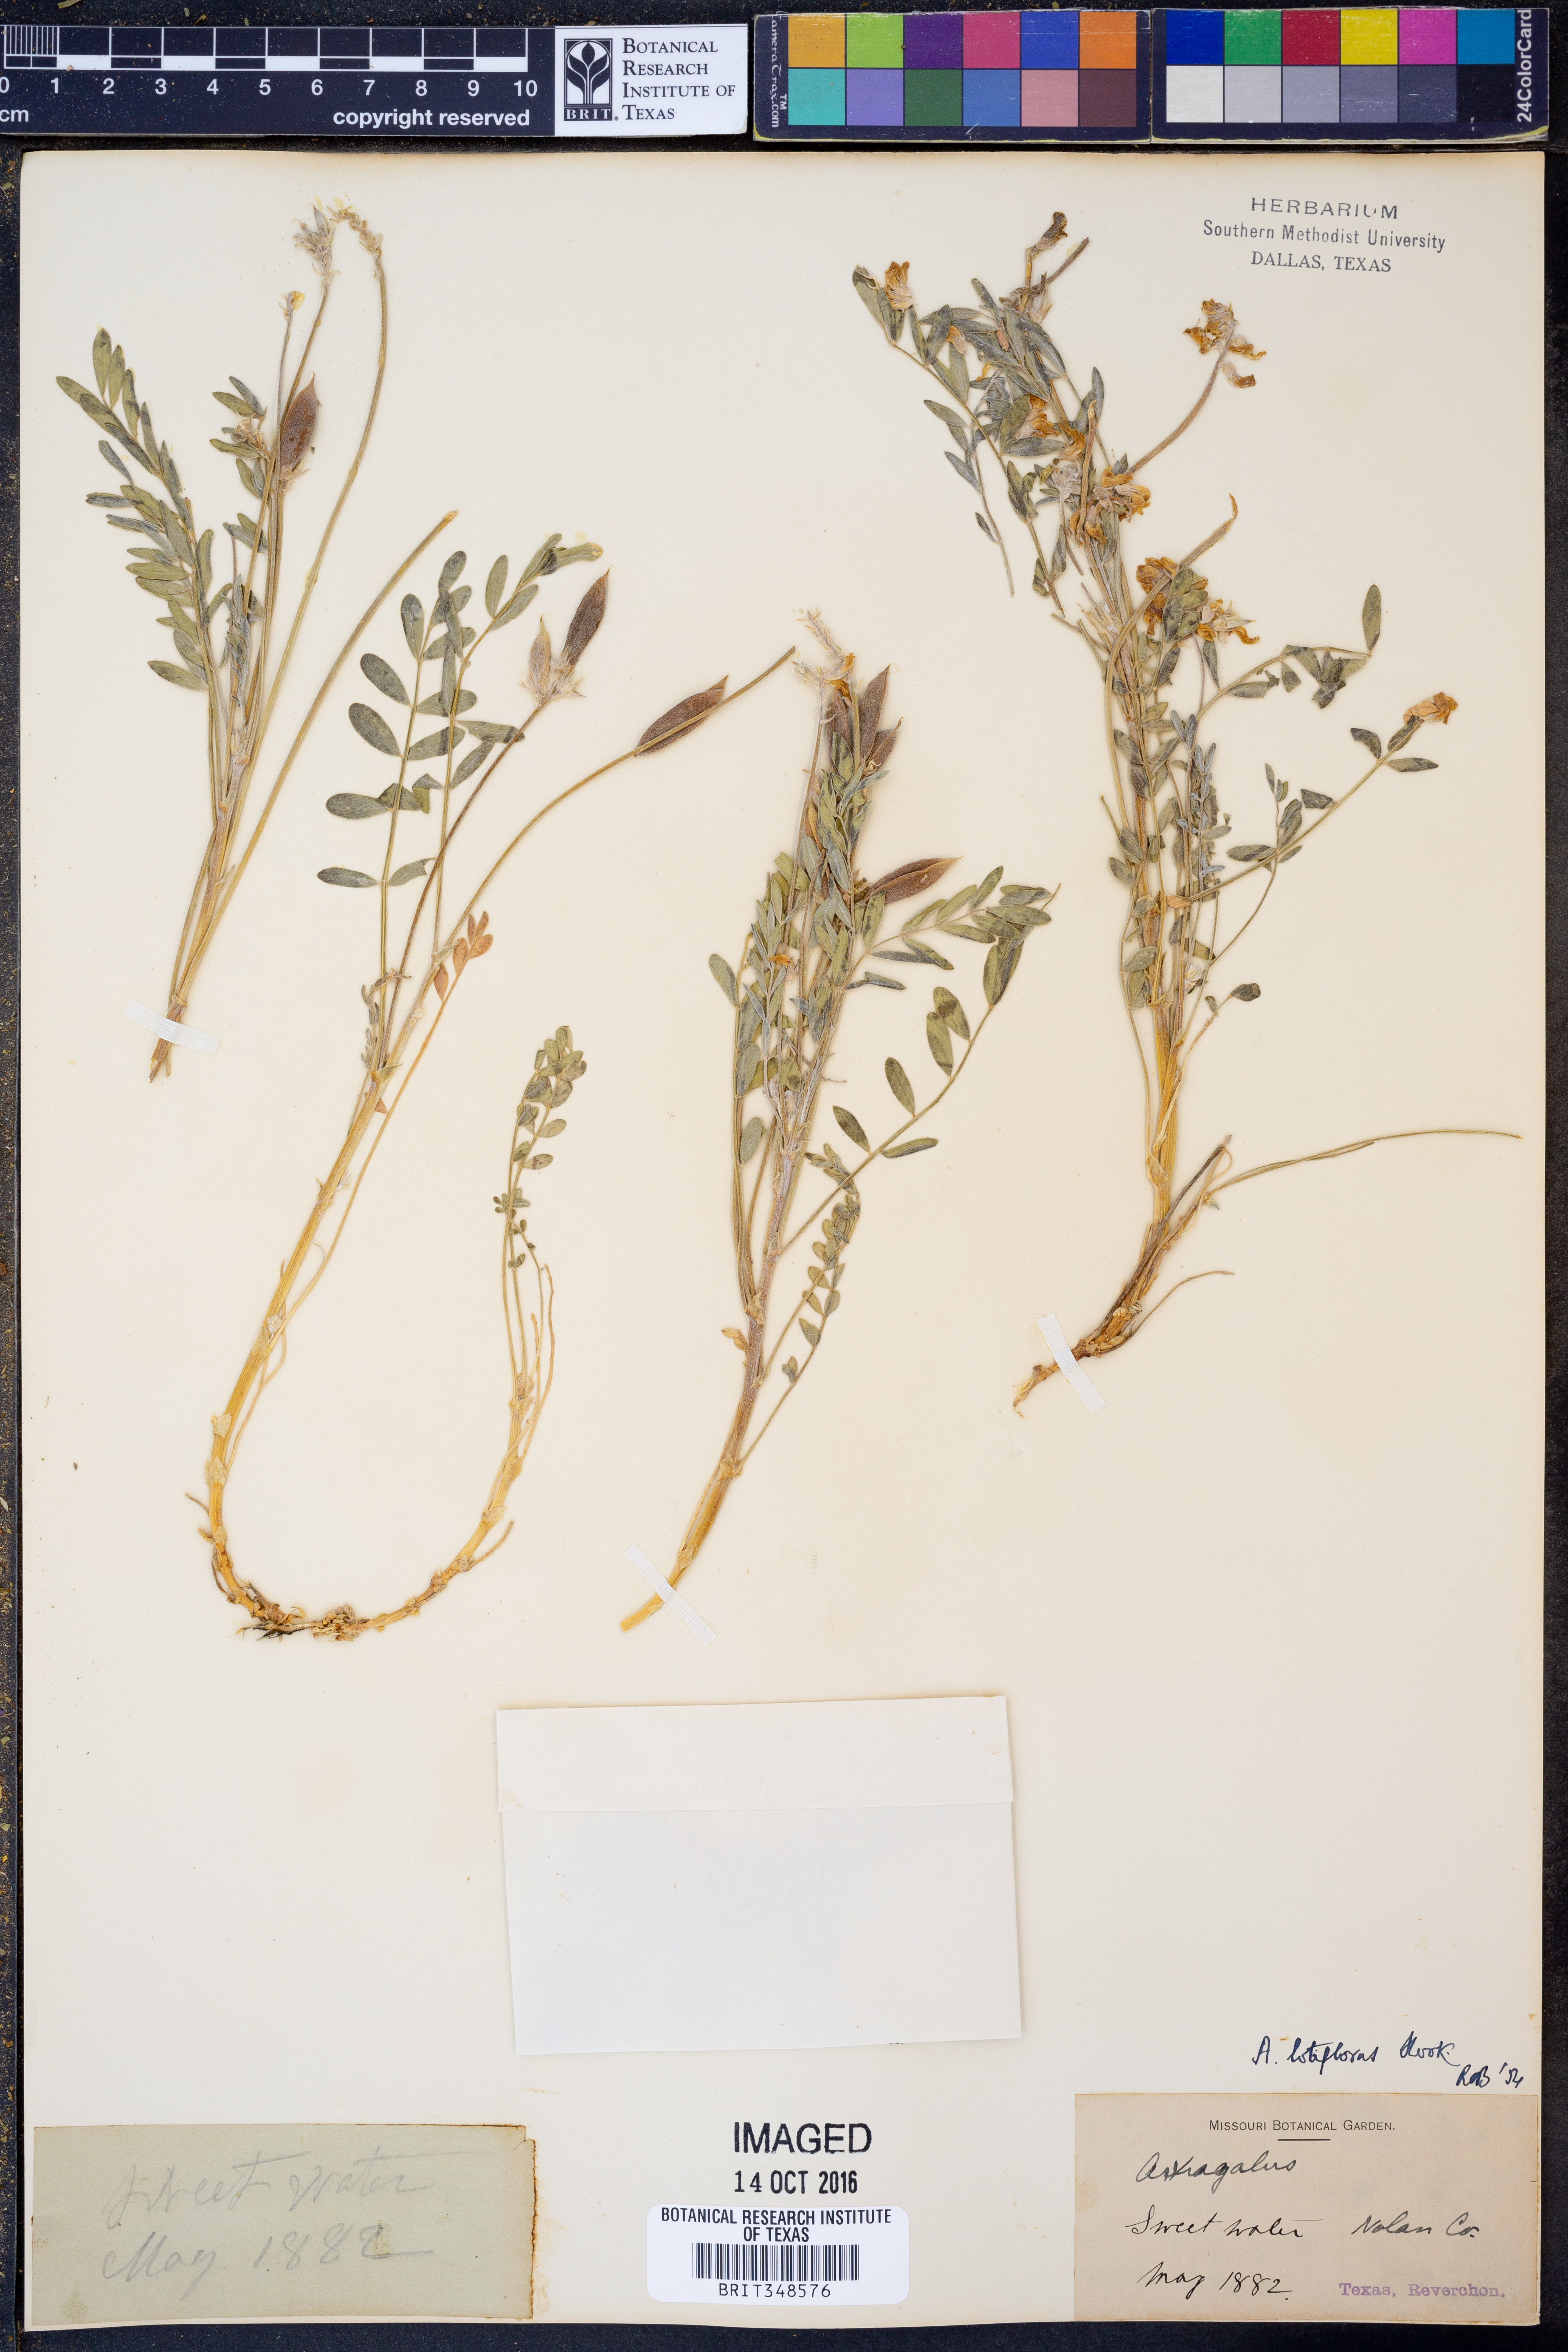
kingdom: Plantae
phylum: Tracheophyta
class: Magnoliopsida
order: Fabales
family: Fabaceae
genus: Astragalus
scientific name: Astragalus lotiflorus
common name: Lotus milk-vetch
